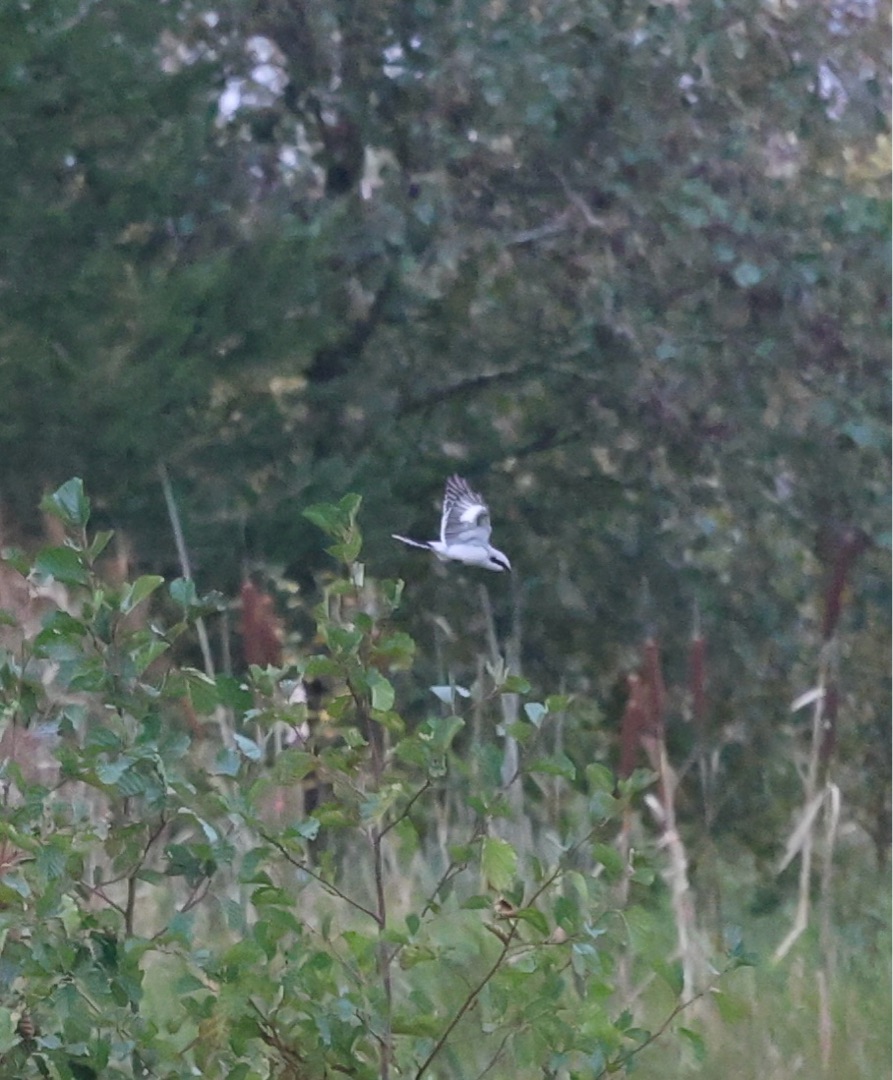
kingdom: Animalia
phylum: Chordata
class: Aves
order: Passeriformes
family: Laniidae
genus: Lanius
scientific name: Lanius excubitor
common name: Stor tornskade
